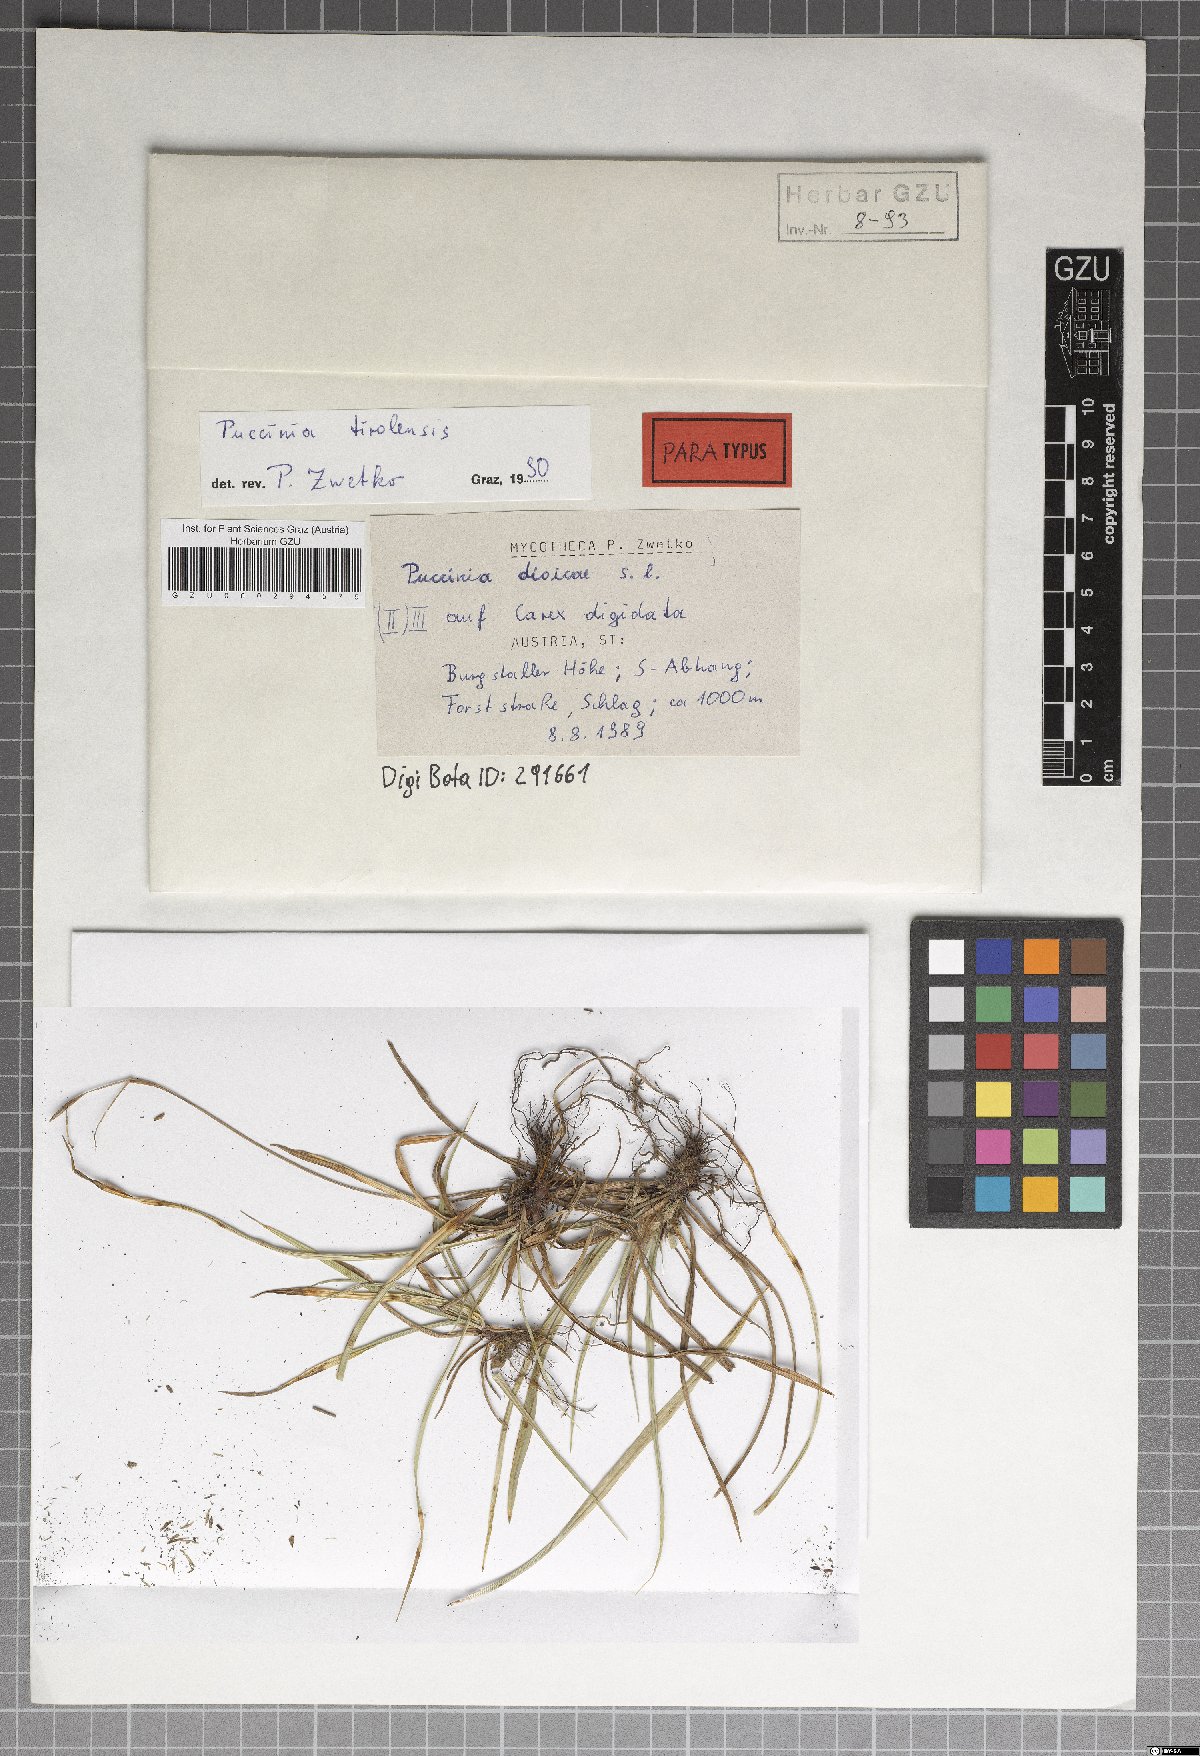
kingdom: Fungi
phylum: Basidiomycota
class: Pucciniomycetes
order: Pucciniales
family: Pucciniaceae
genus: Puccinia
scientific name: Puccinia tirolensis
